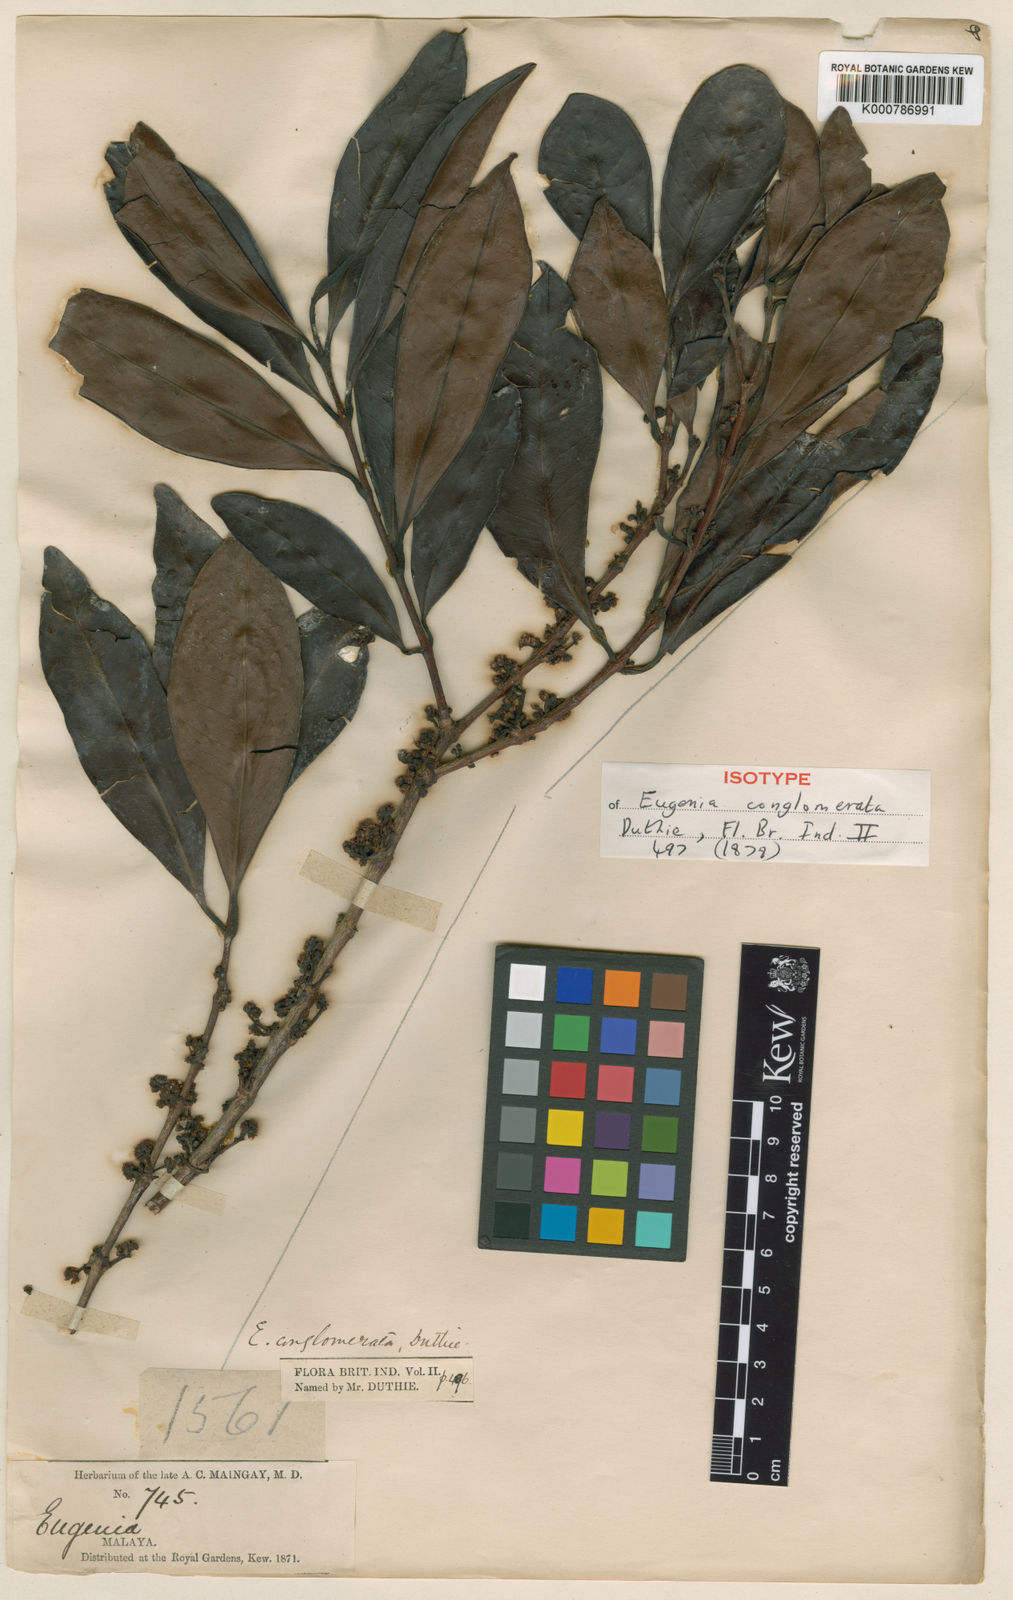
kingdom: Plantae
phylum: Tracheophyta
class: Magnoliopsida
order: Myrtales
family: Myrtaceae
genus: Syzygium
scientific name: Syzygium conglomeratum
